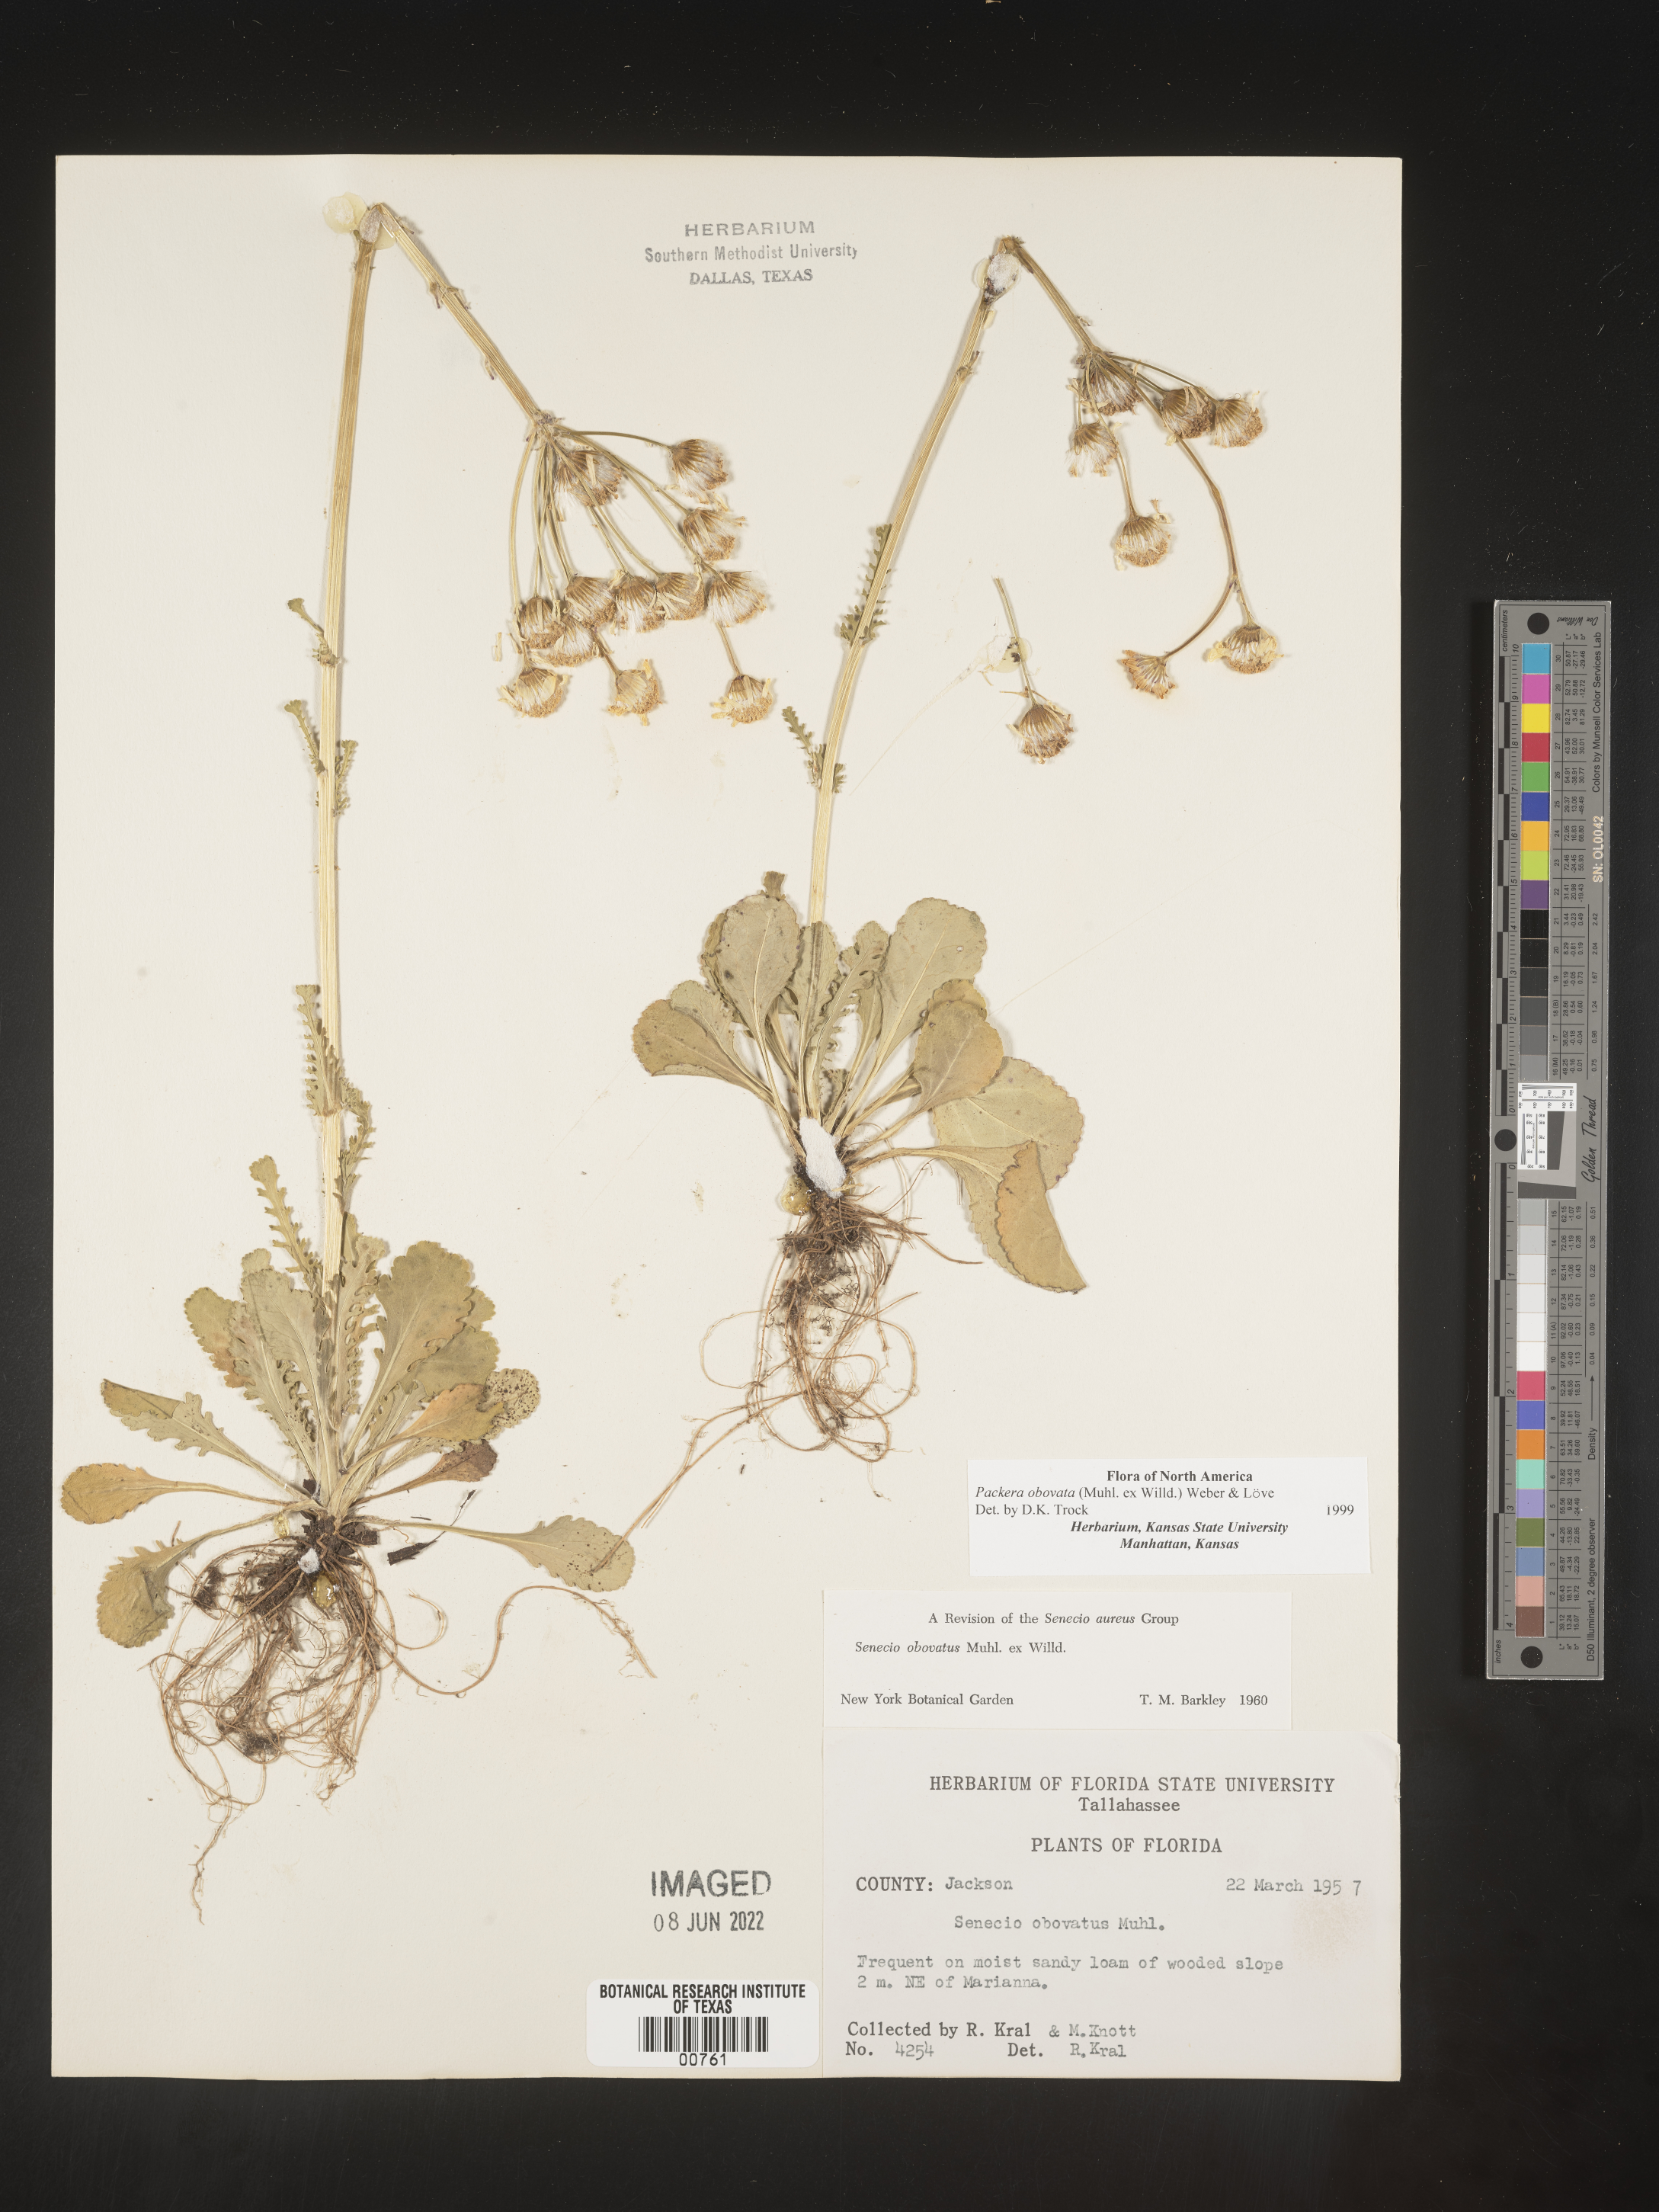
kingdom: Plantae
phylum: Tracheophyta
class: Magnoliopsida
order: Asterales
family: Asteraceae
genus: Packera
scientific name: Packera obovata
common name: Round-leaf ragwort
